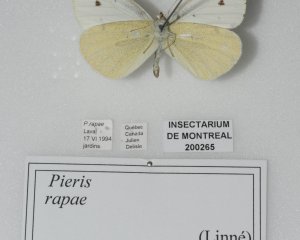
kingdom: Animalia
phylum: Arthropoda
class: Insecta
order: Lepidoptera
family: Pieridae
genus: Pieris
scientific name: Pieris rapae
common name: Cabbage White
